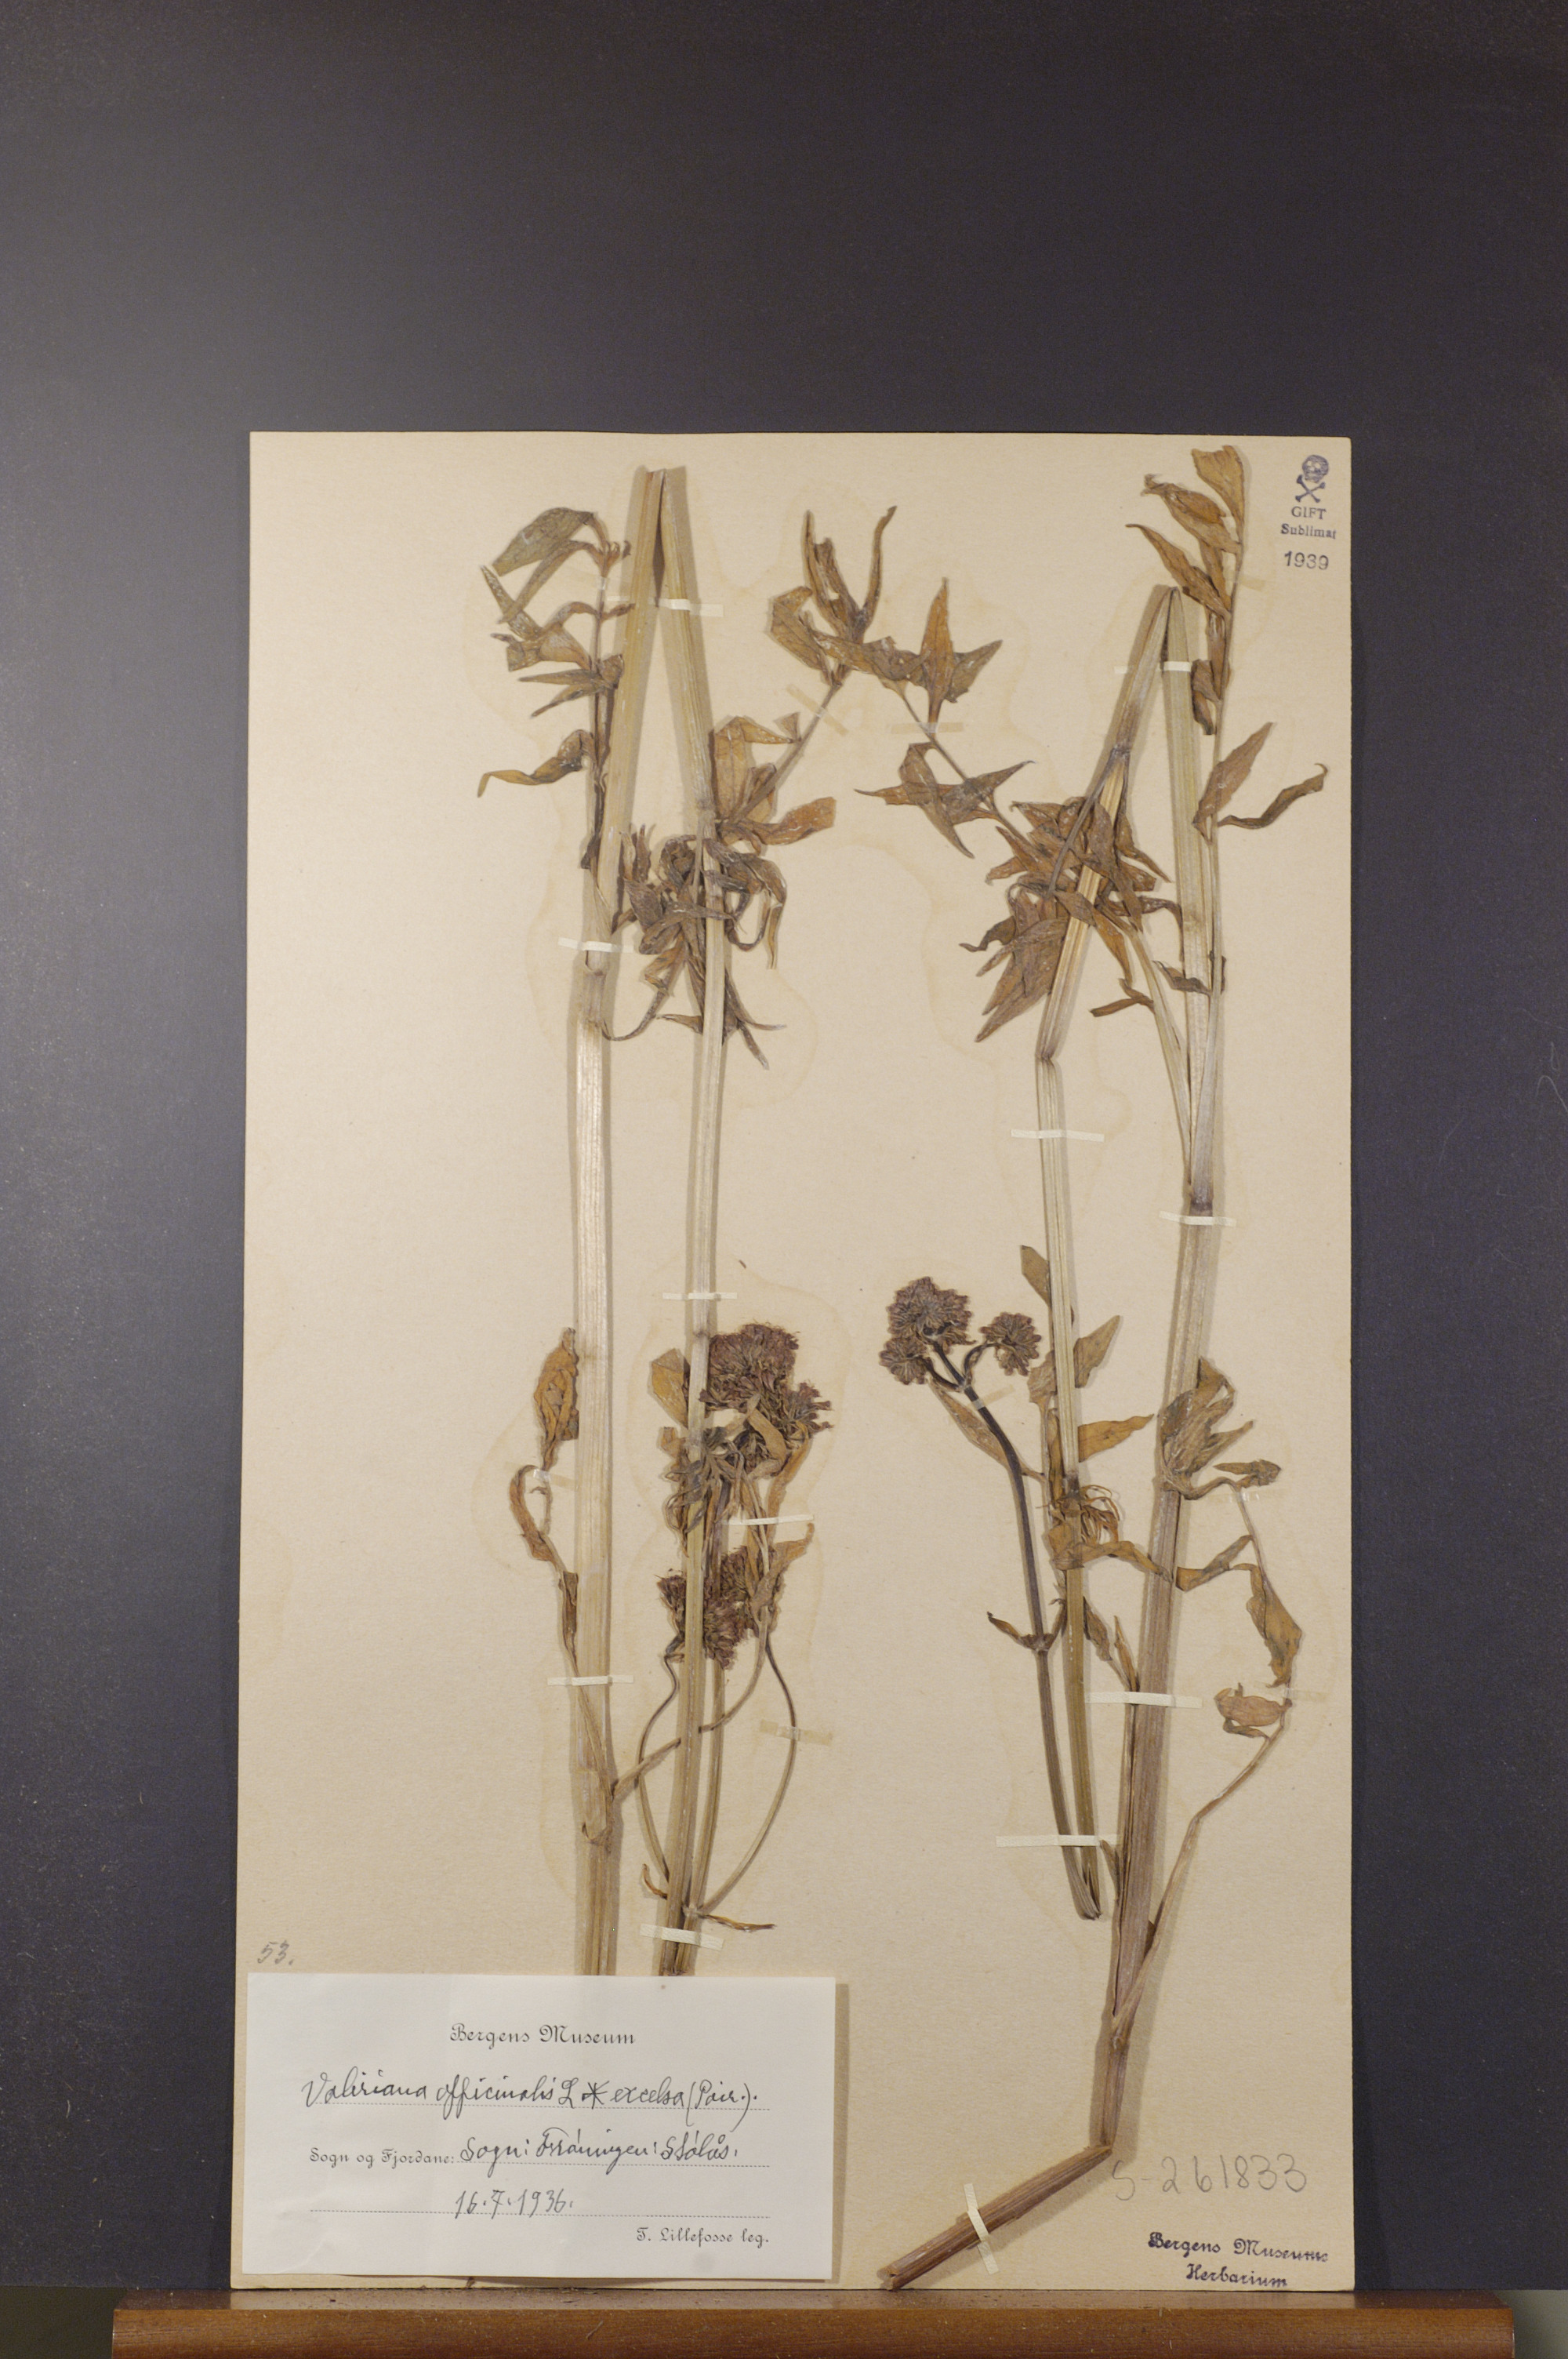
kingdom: Plantae
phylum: Tracheophyta
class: Magnoliopsida
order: Dipsacales
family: Caprifoliaceae
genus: Valeriana
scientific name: Valeriana sambucifolia
